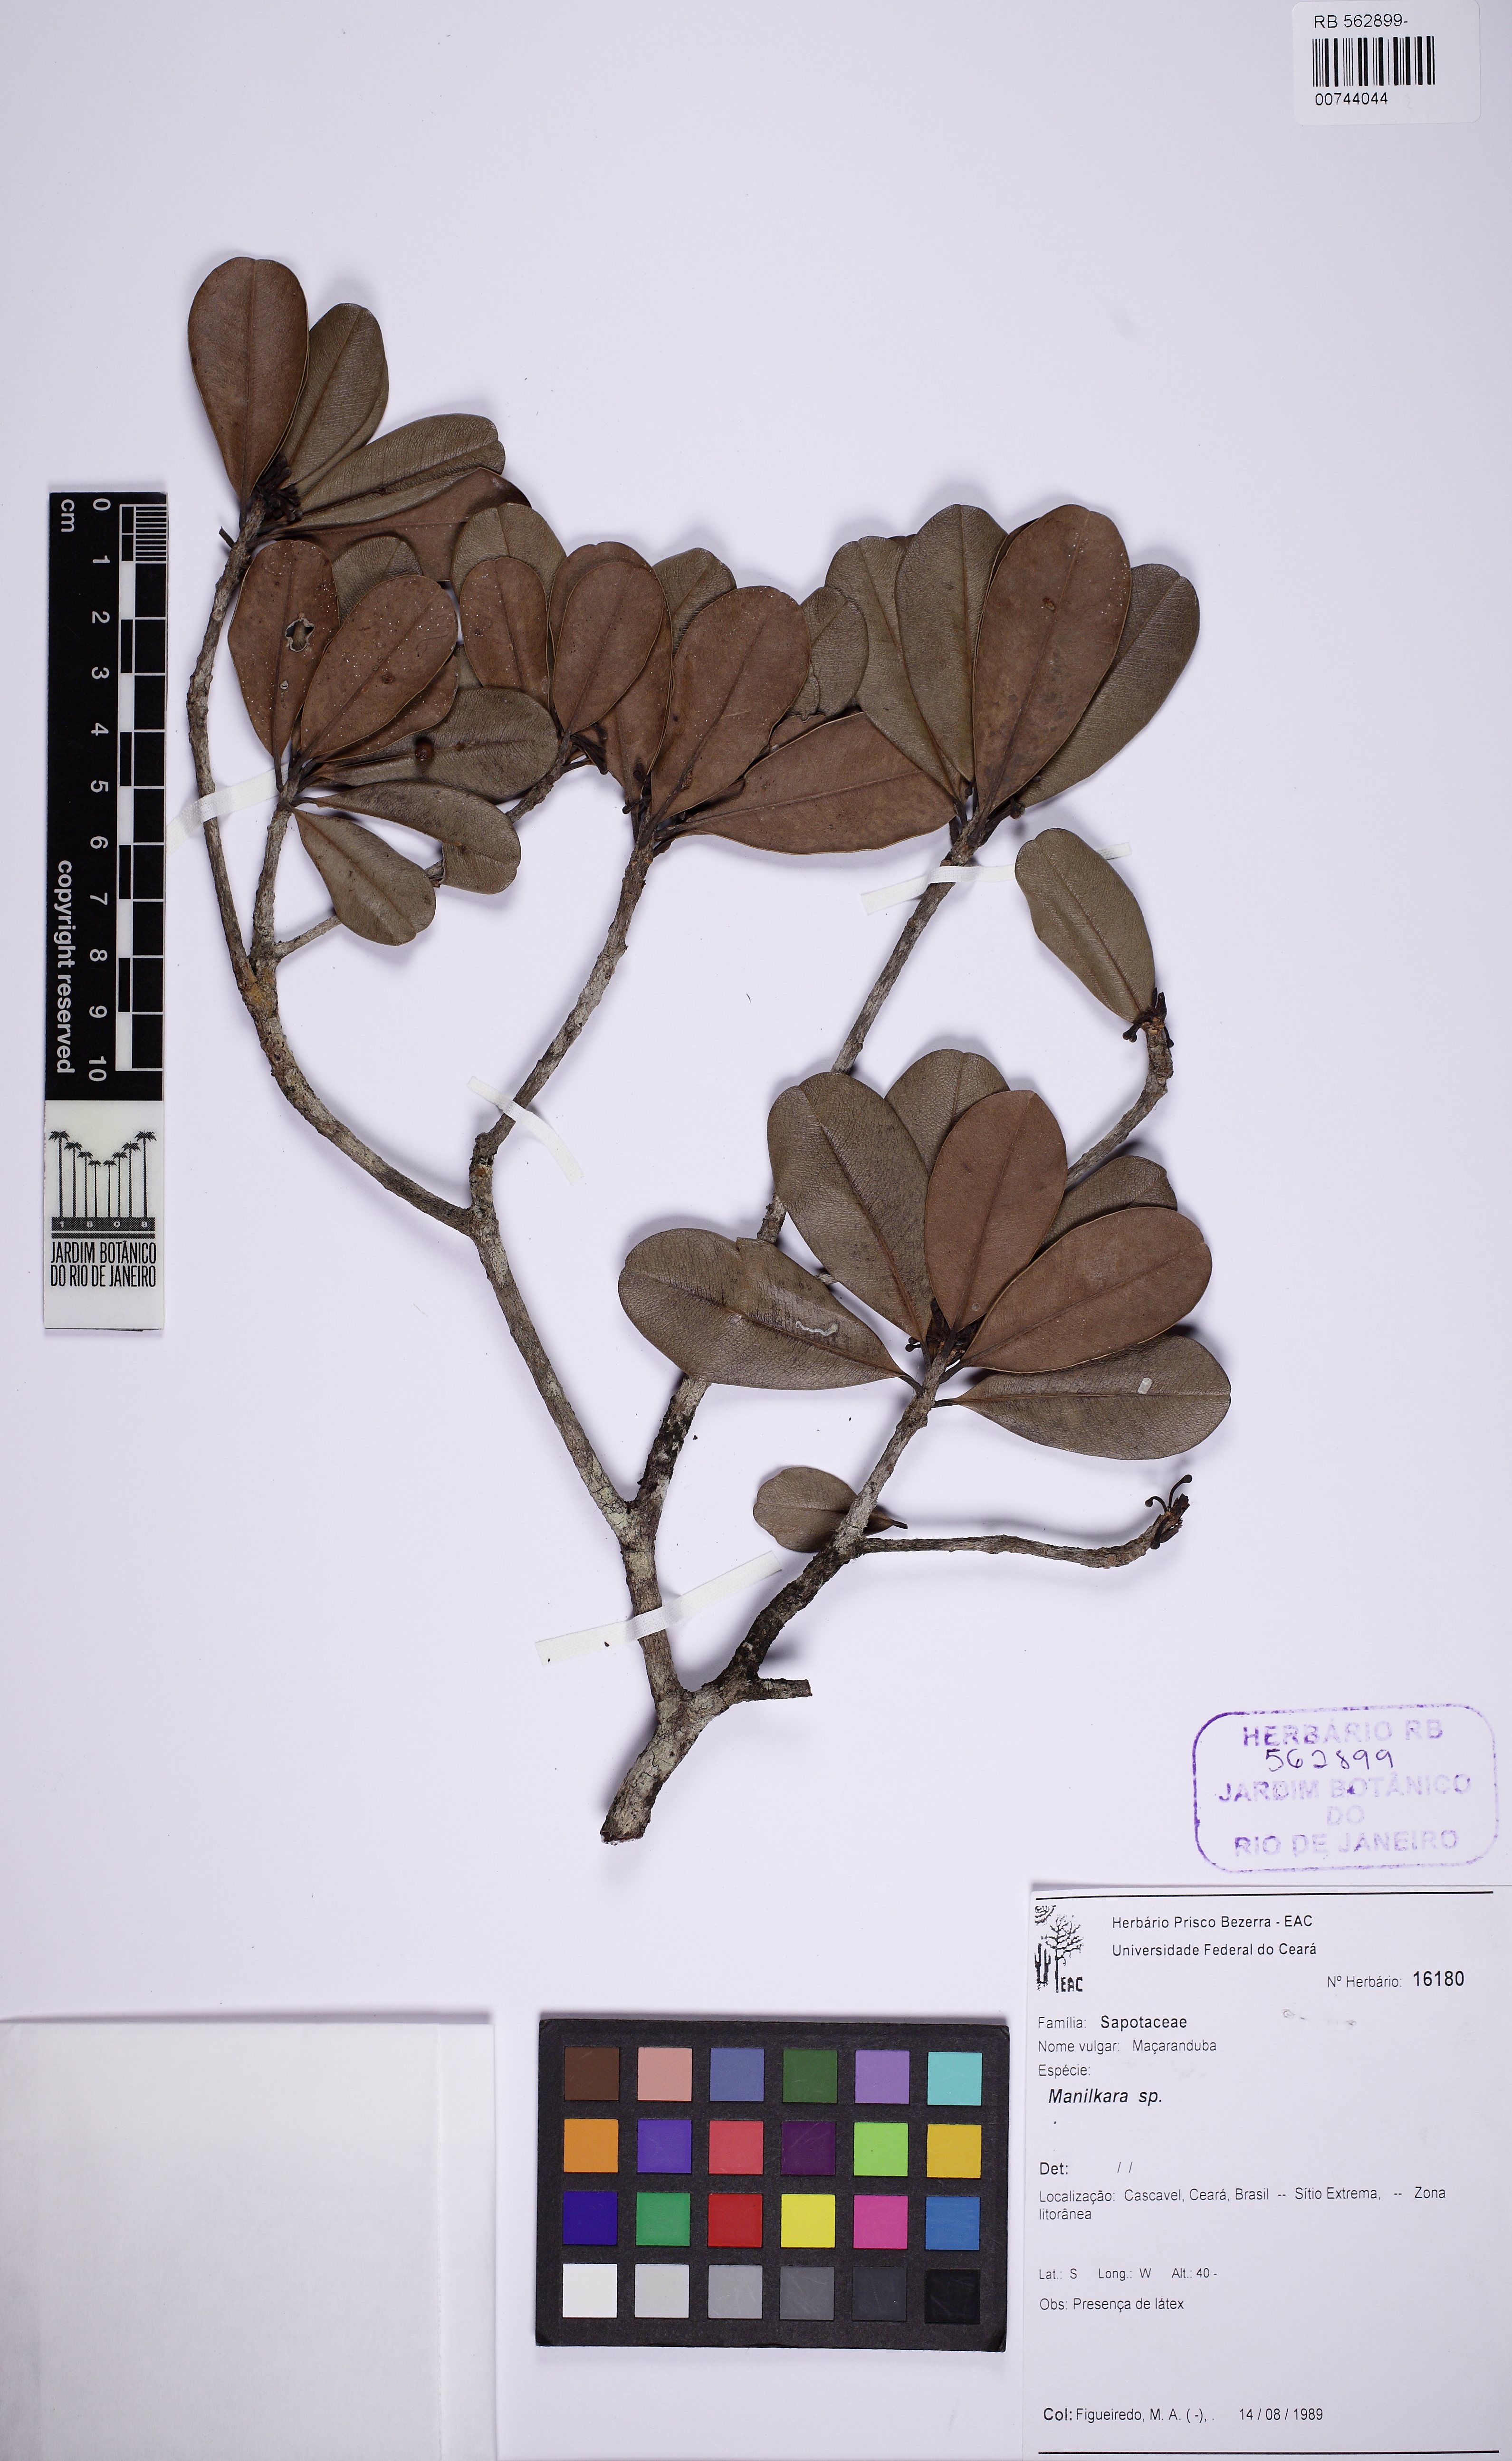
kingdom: Plantae
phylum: Tracheophyta
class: Magnoliopsida
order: Ericales
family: Sapotaceae
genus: Manilkara
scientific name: Manilkara
